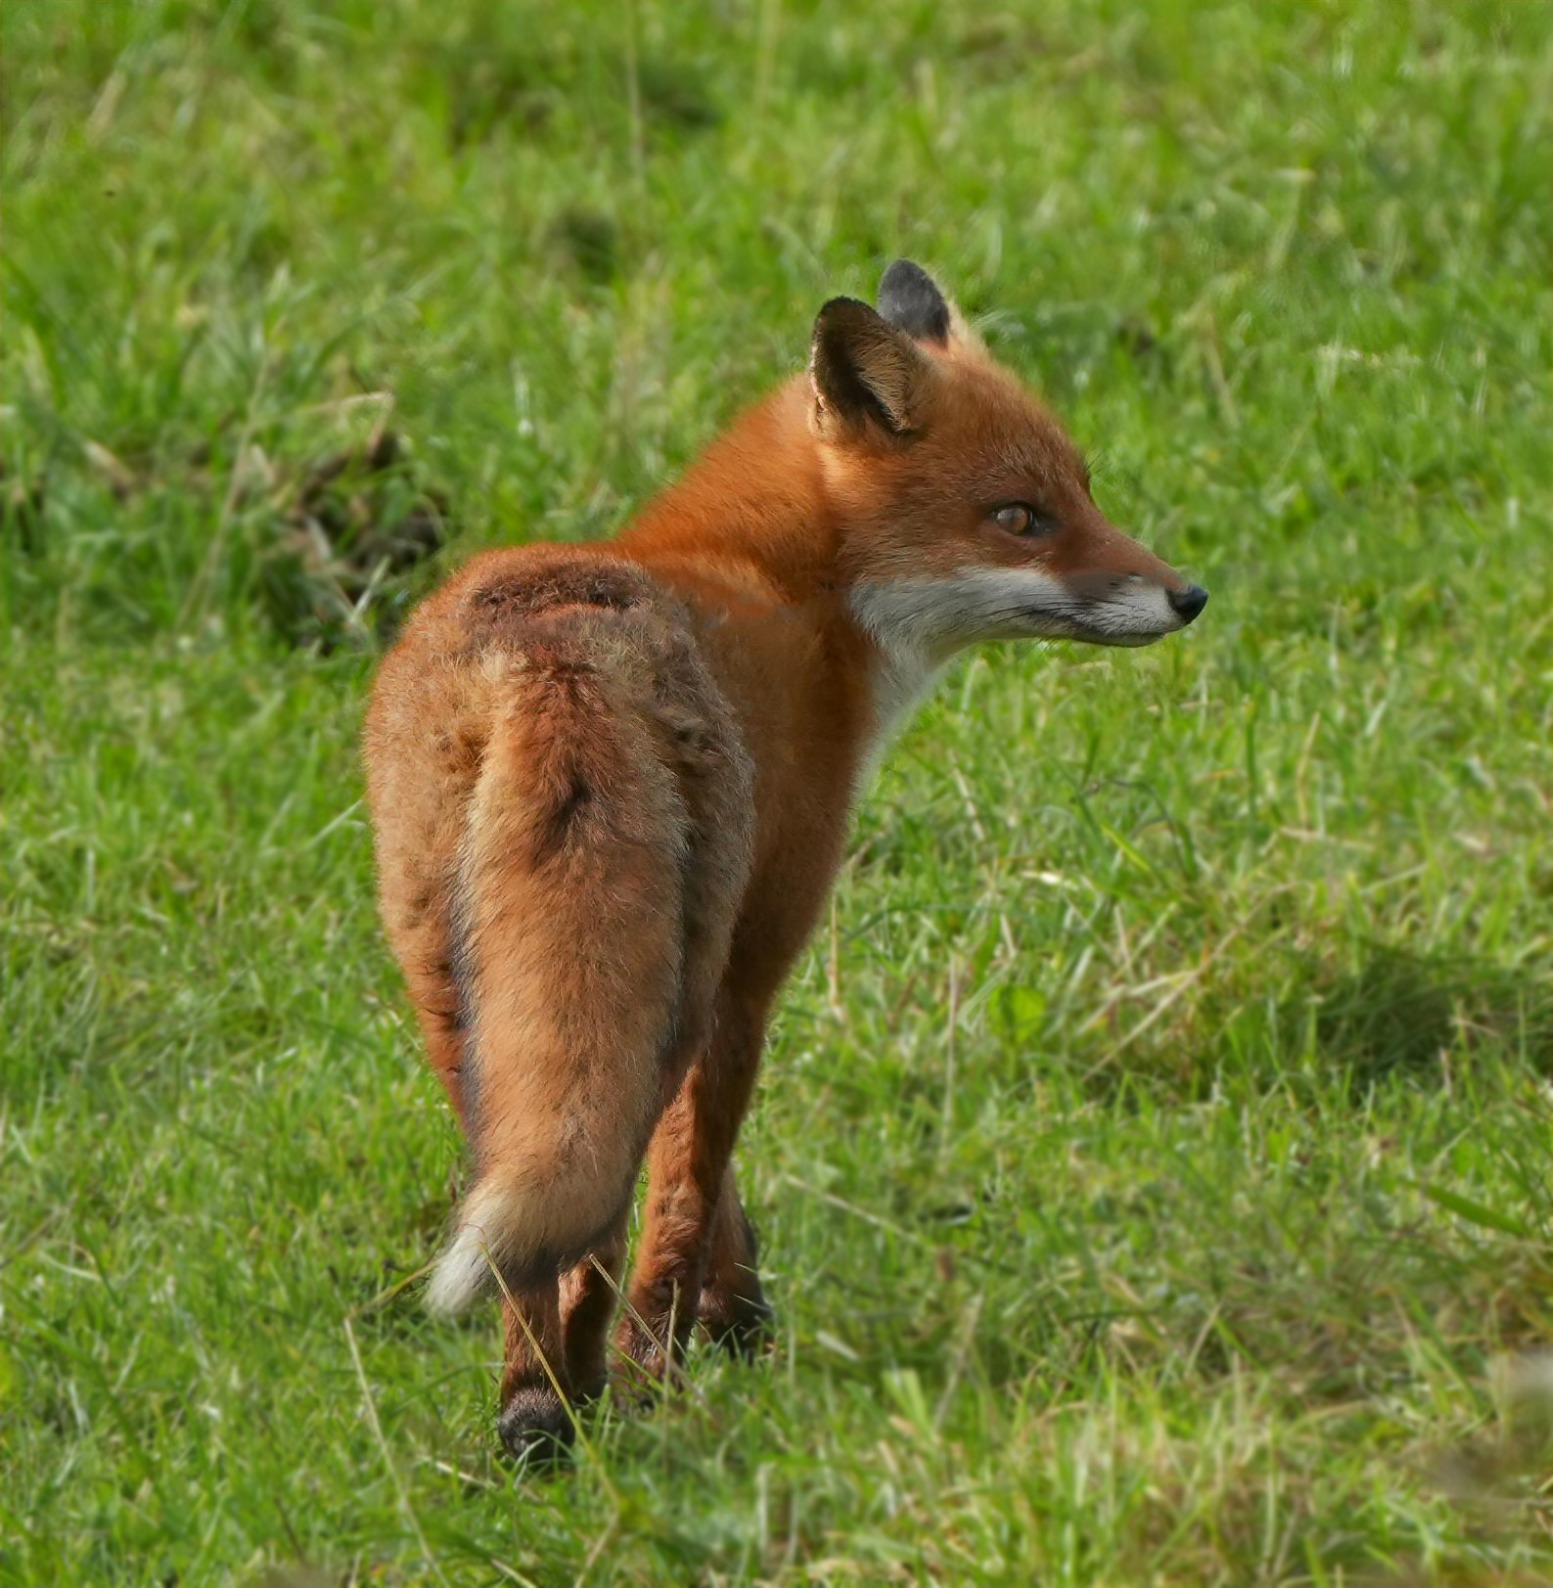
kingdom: Animalia
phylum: Chordata
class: Mammalia
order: Carnivora
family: Canidae
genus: Vulpes
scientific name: Vulpes vulpes
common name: Ræv
